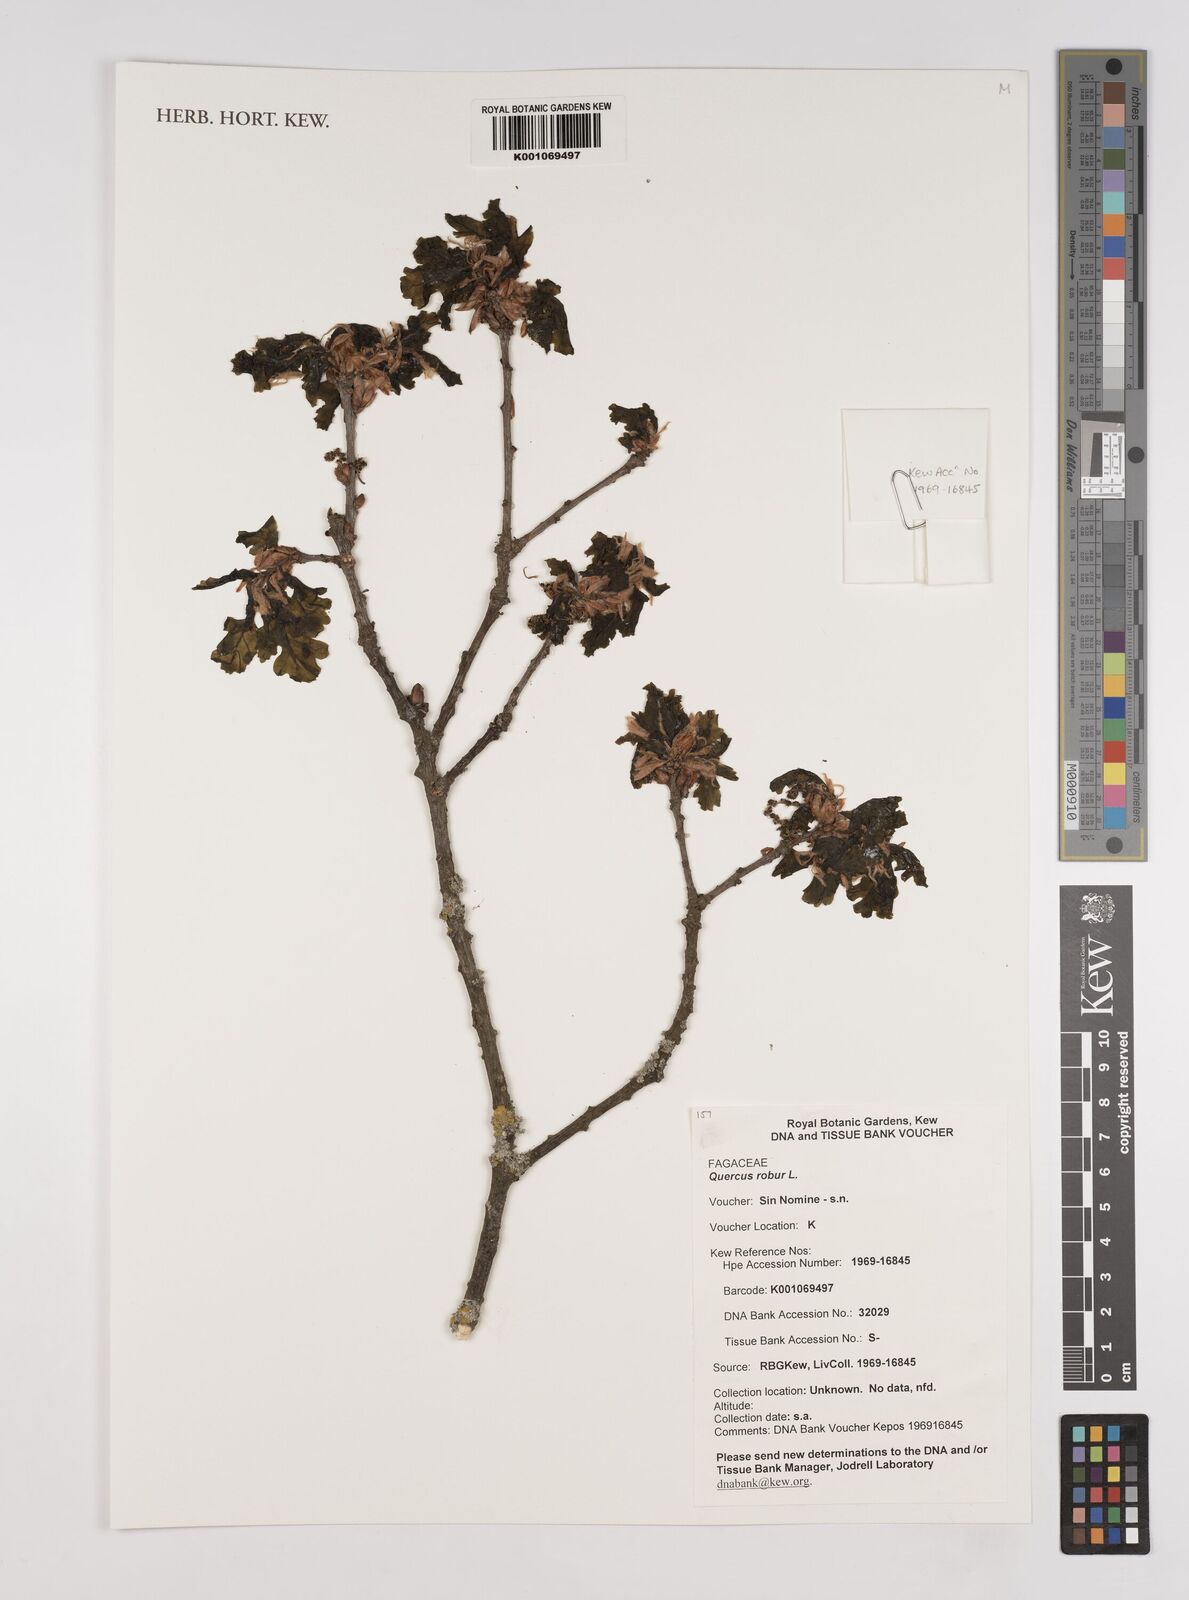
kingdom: Plantae
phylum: Tracheophyta
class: Magnoliopsida
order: Fagales
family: Fagaceae
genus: Quercus
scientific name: Quercus robur
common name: Pedunculate oak
